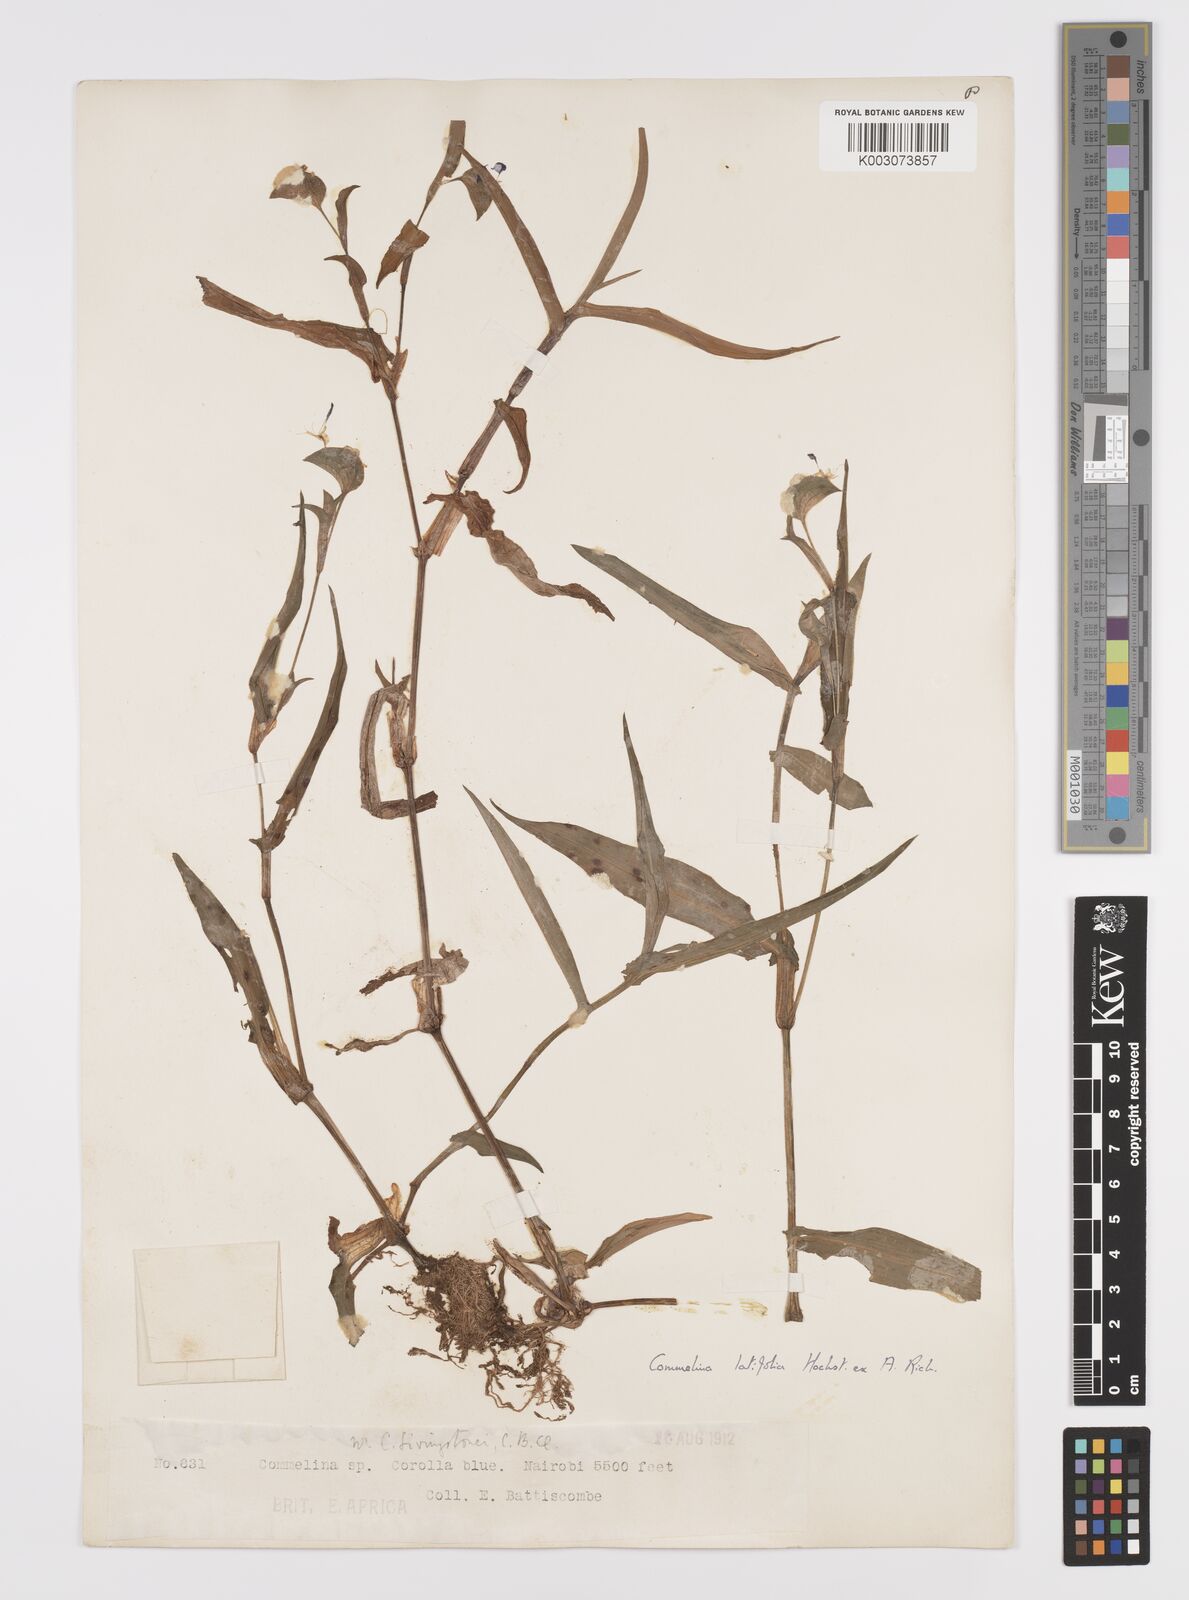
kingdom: Plantae
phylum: Tracheophyta
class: Liliopsida
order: Commelinales
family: Commelinaceae
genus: Commelina
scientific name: Commelina latifolia
